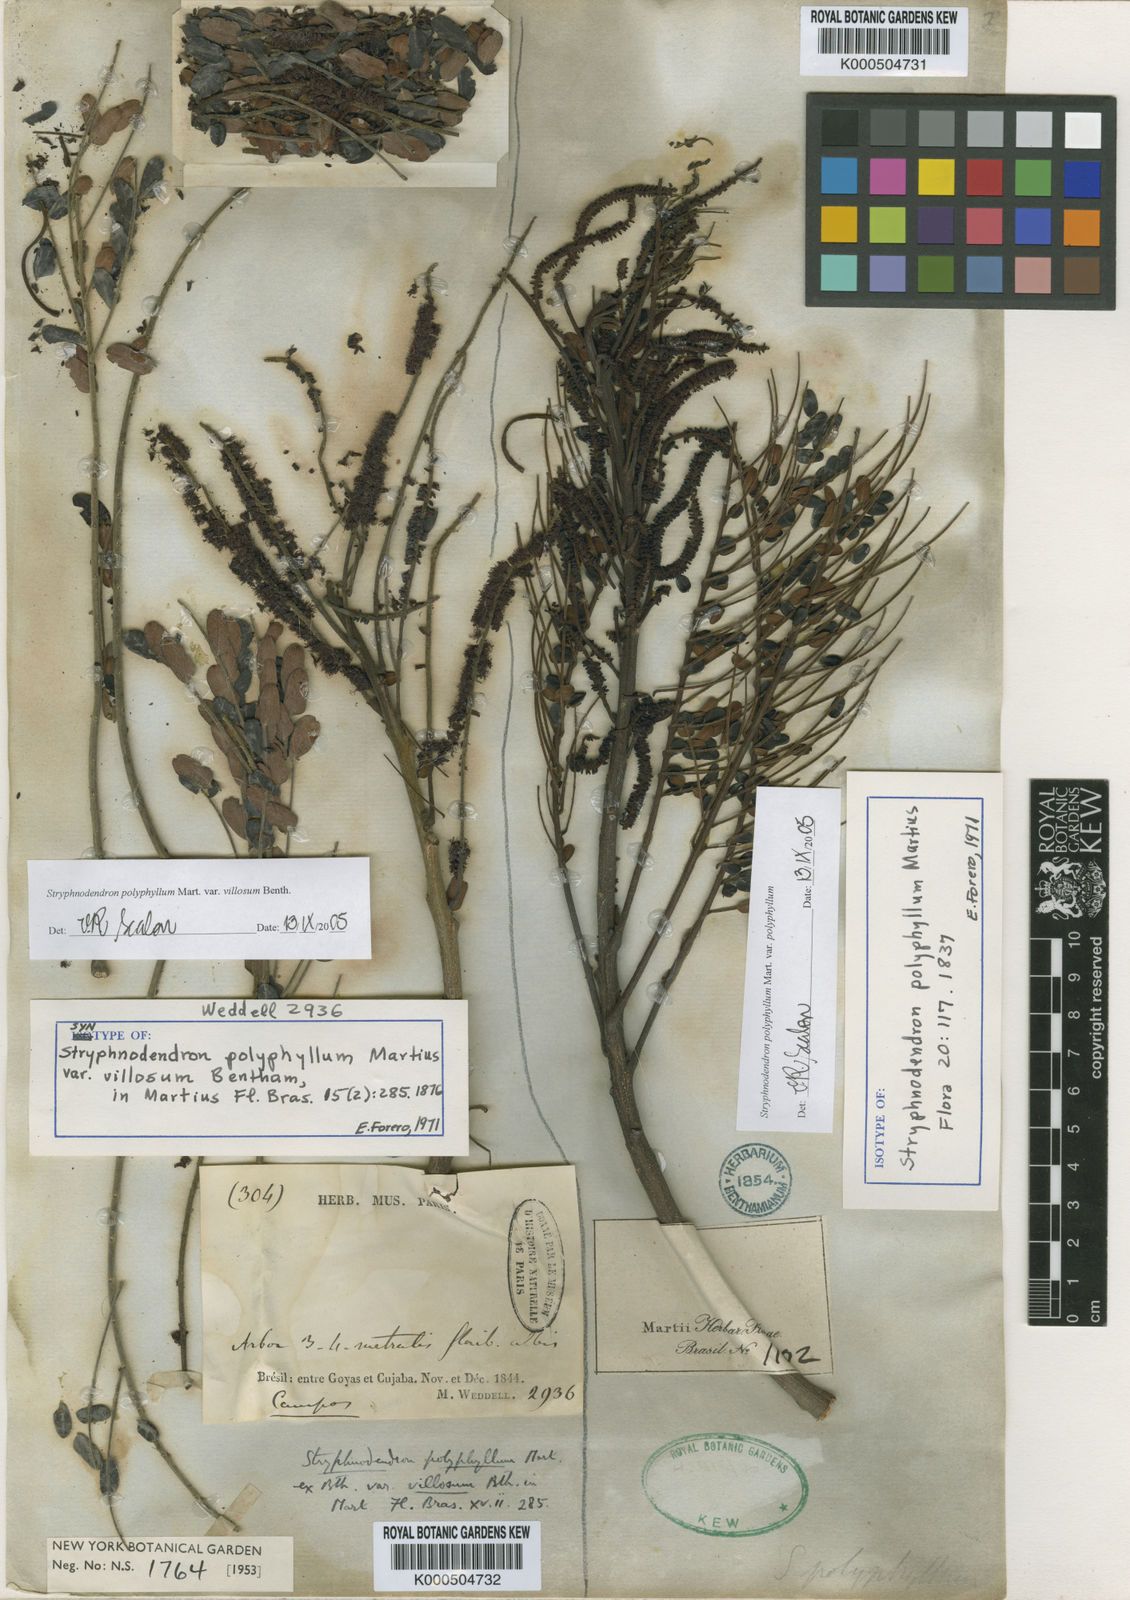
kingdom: Plantae
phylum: Tracheophyta
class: Magnoliopsida
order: Fabales
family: Fabaceae
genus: Stryphnodendron
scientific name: Stryphnodendron polyphyllum
